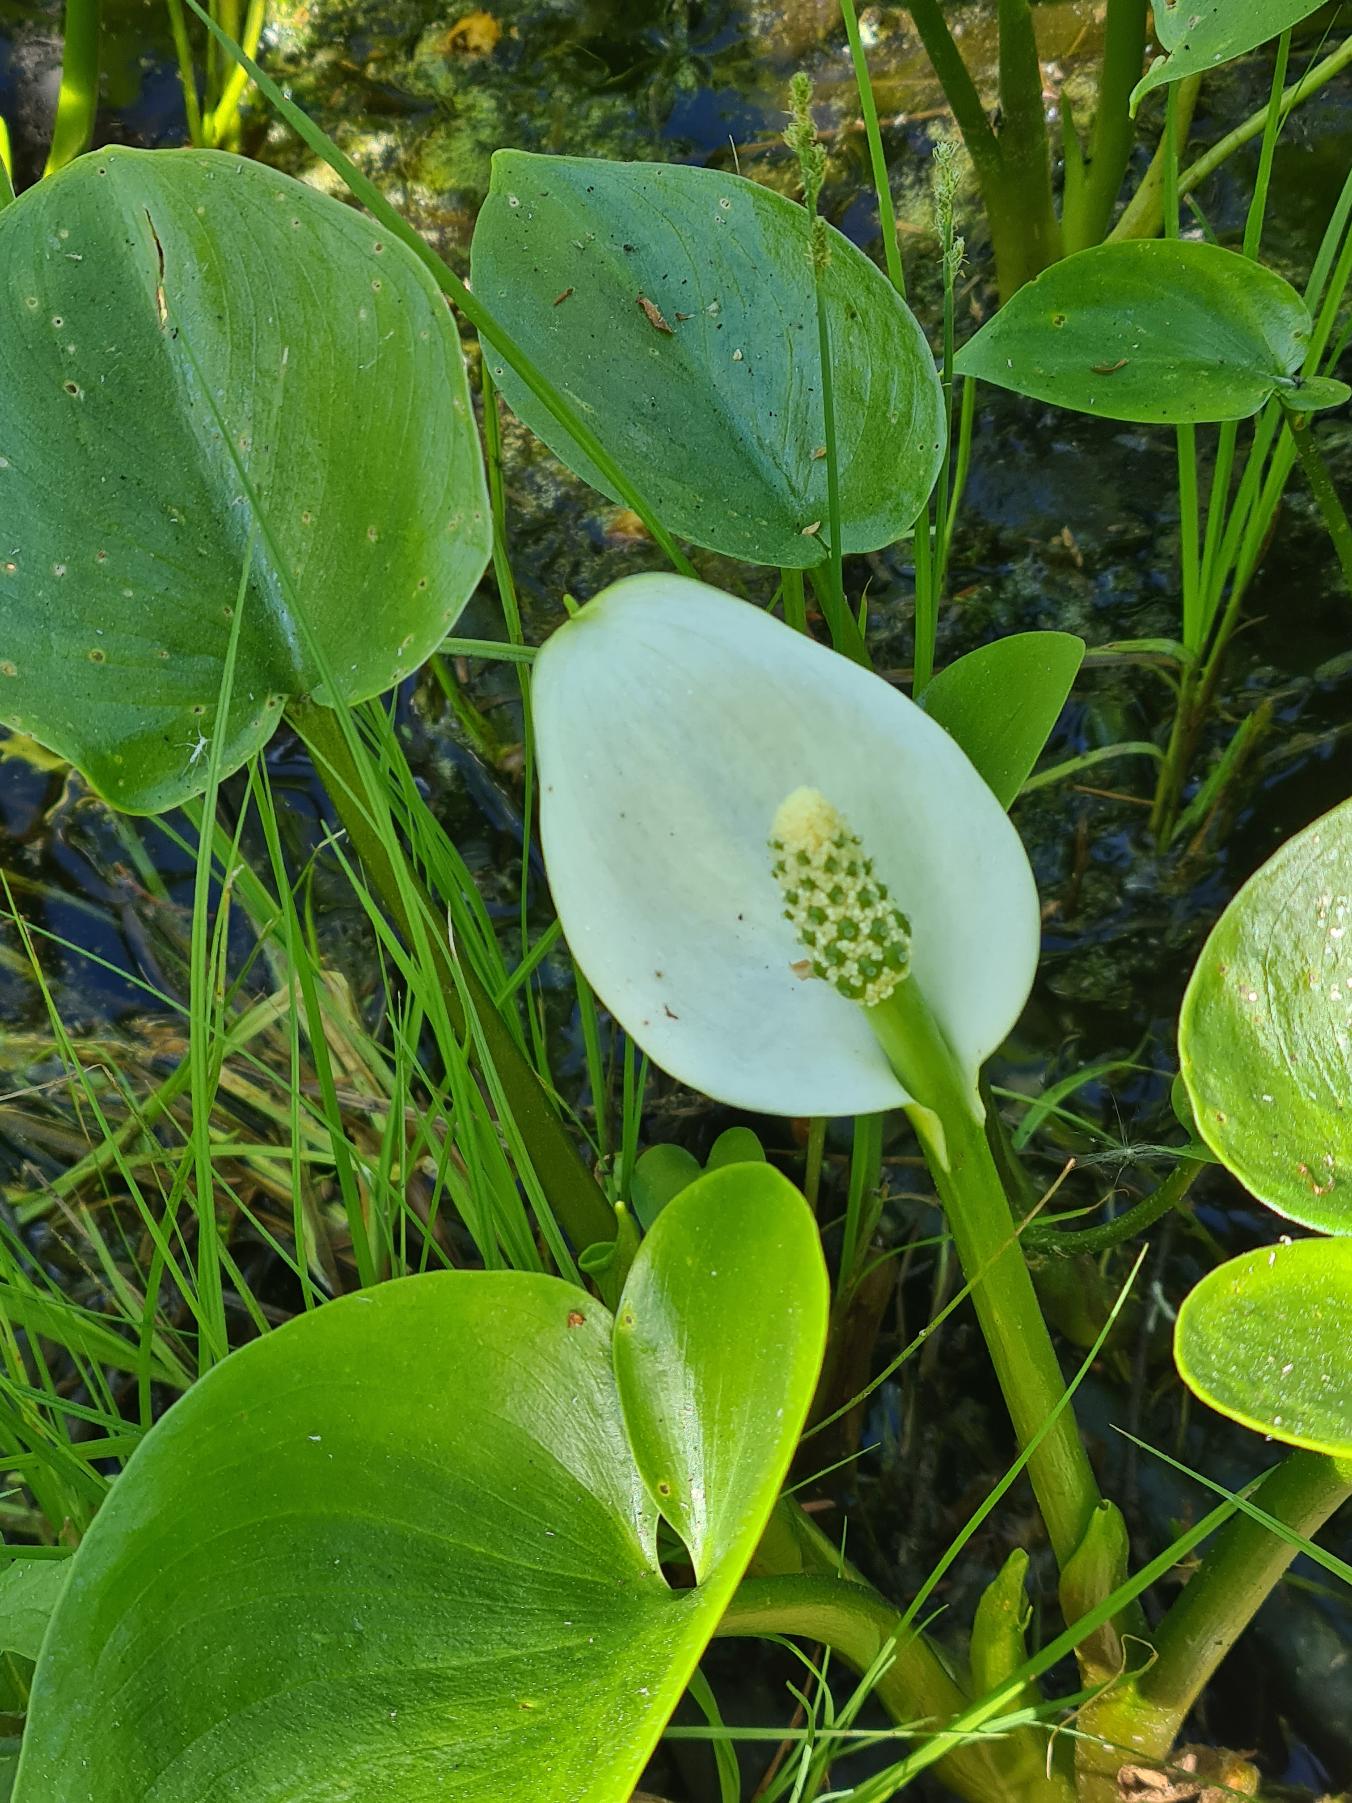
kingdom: Plantae
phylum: Tracheophyta
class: Liliopsida
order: Alismatales
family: Araceae
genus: Calla
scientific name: Calla palustris
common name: Kærmysse
